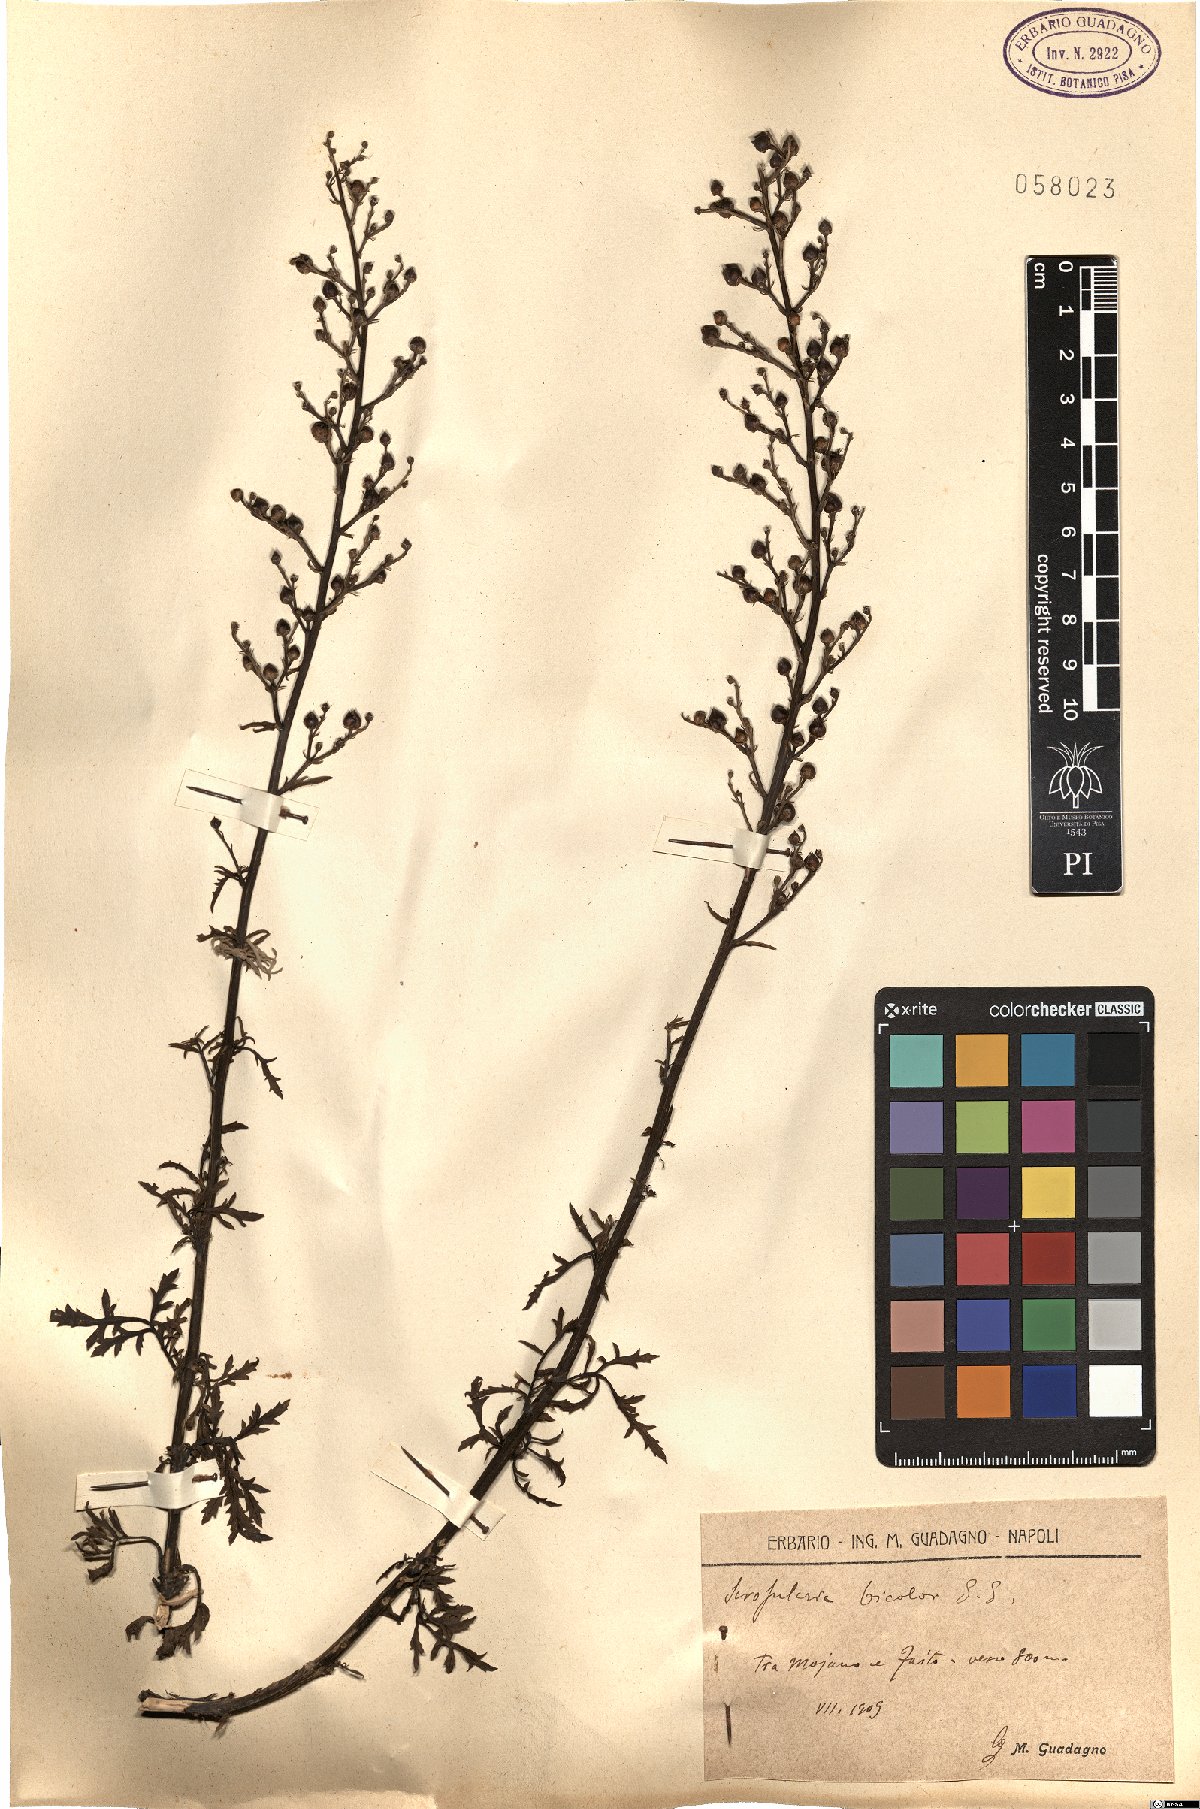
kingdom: Plantae
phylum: Tracheophyta
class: Magnoliopsida
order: Lamiales
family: Scrophulariaceae
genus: Scrophularia
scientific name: Scrophularia canina
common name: French figwort
